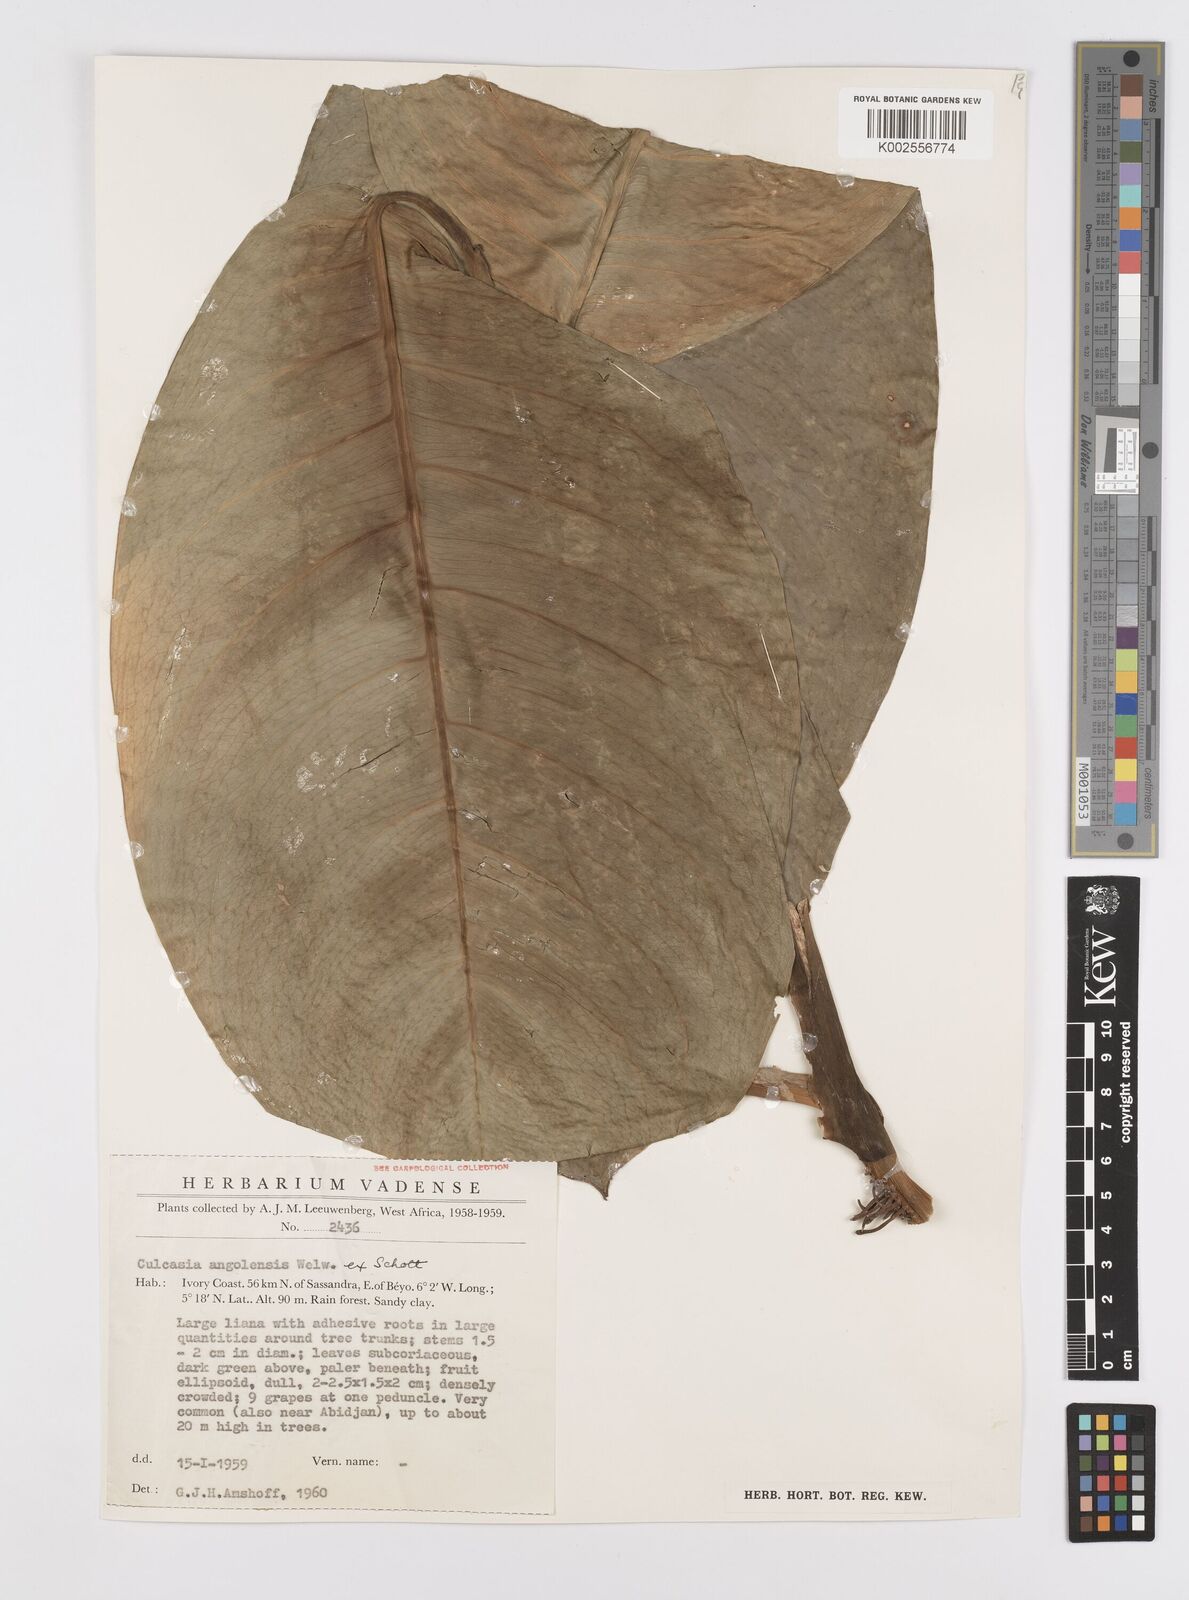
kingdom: Plantae
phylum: Tracheophyta
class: Liliopsida
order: Alismatales
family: Araceae
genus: Culcasia
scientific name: Culcasia angolensis
